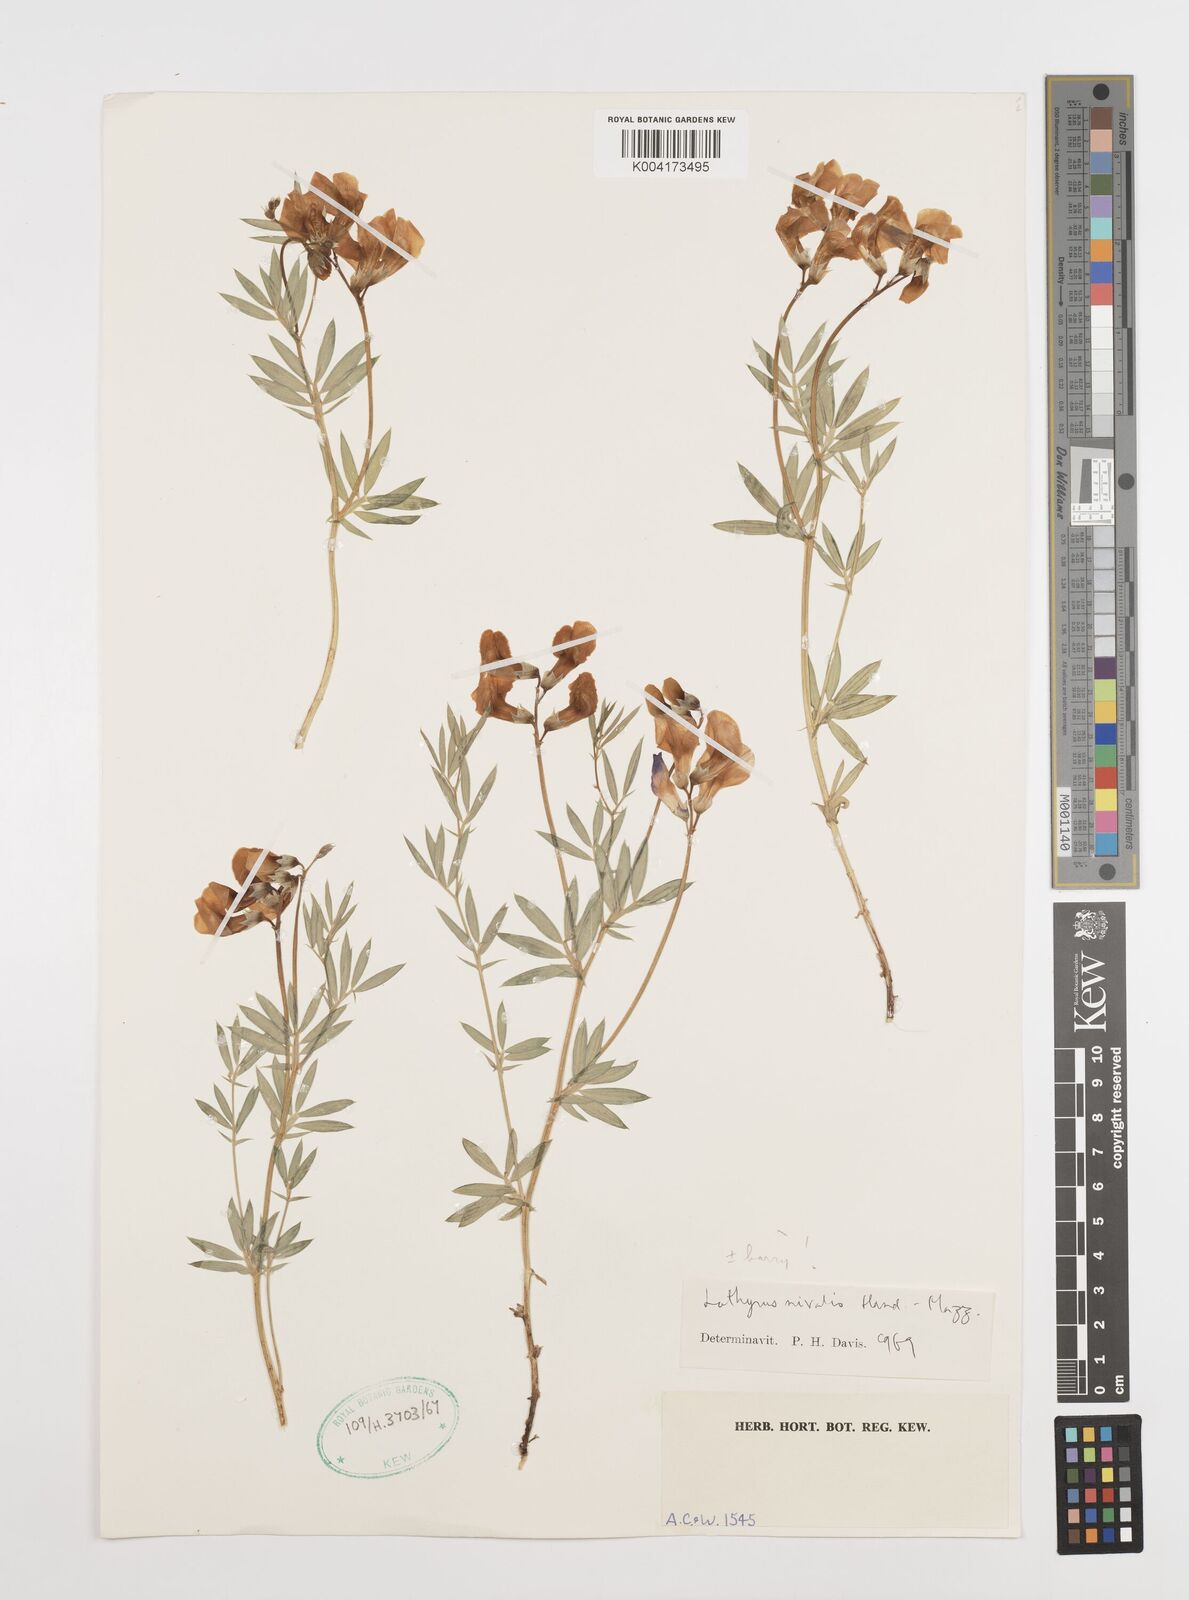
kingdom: Plantae
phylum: Tracheophyta
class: Magnoliopsida
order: Fabales
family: Fabaceae
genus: Lathyrus
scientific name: Lathyrus nivalis
